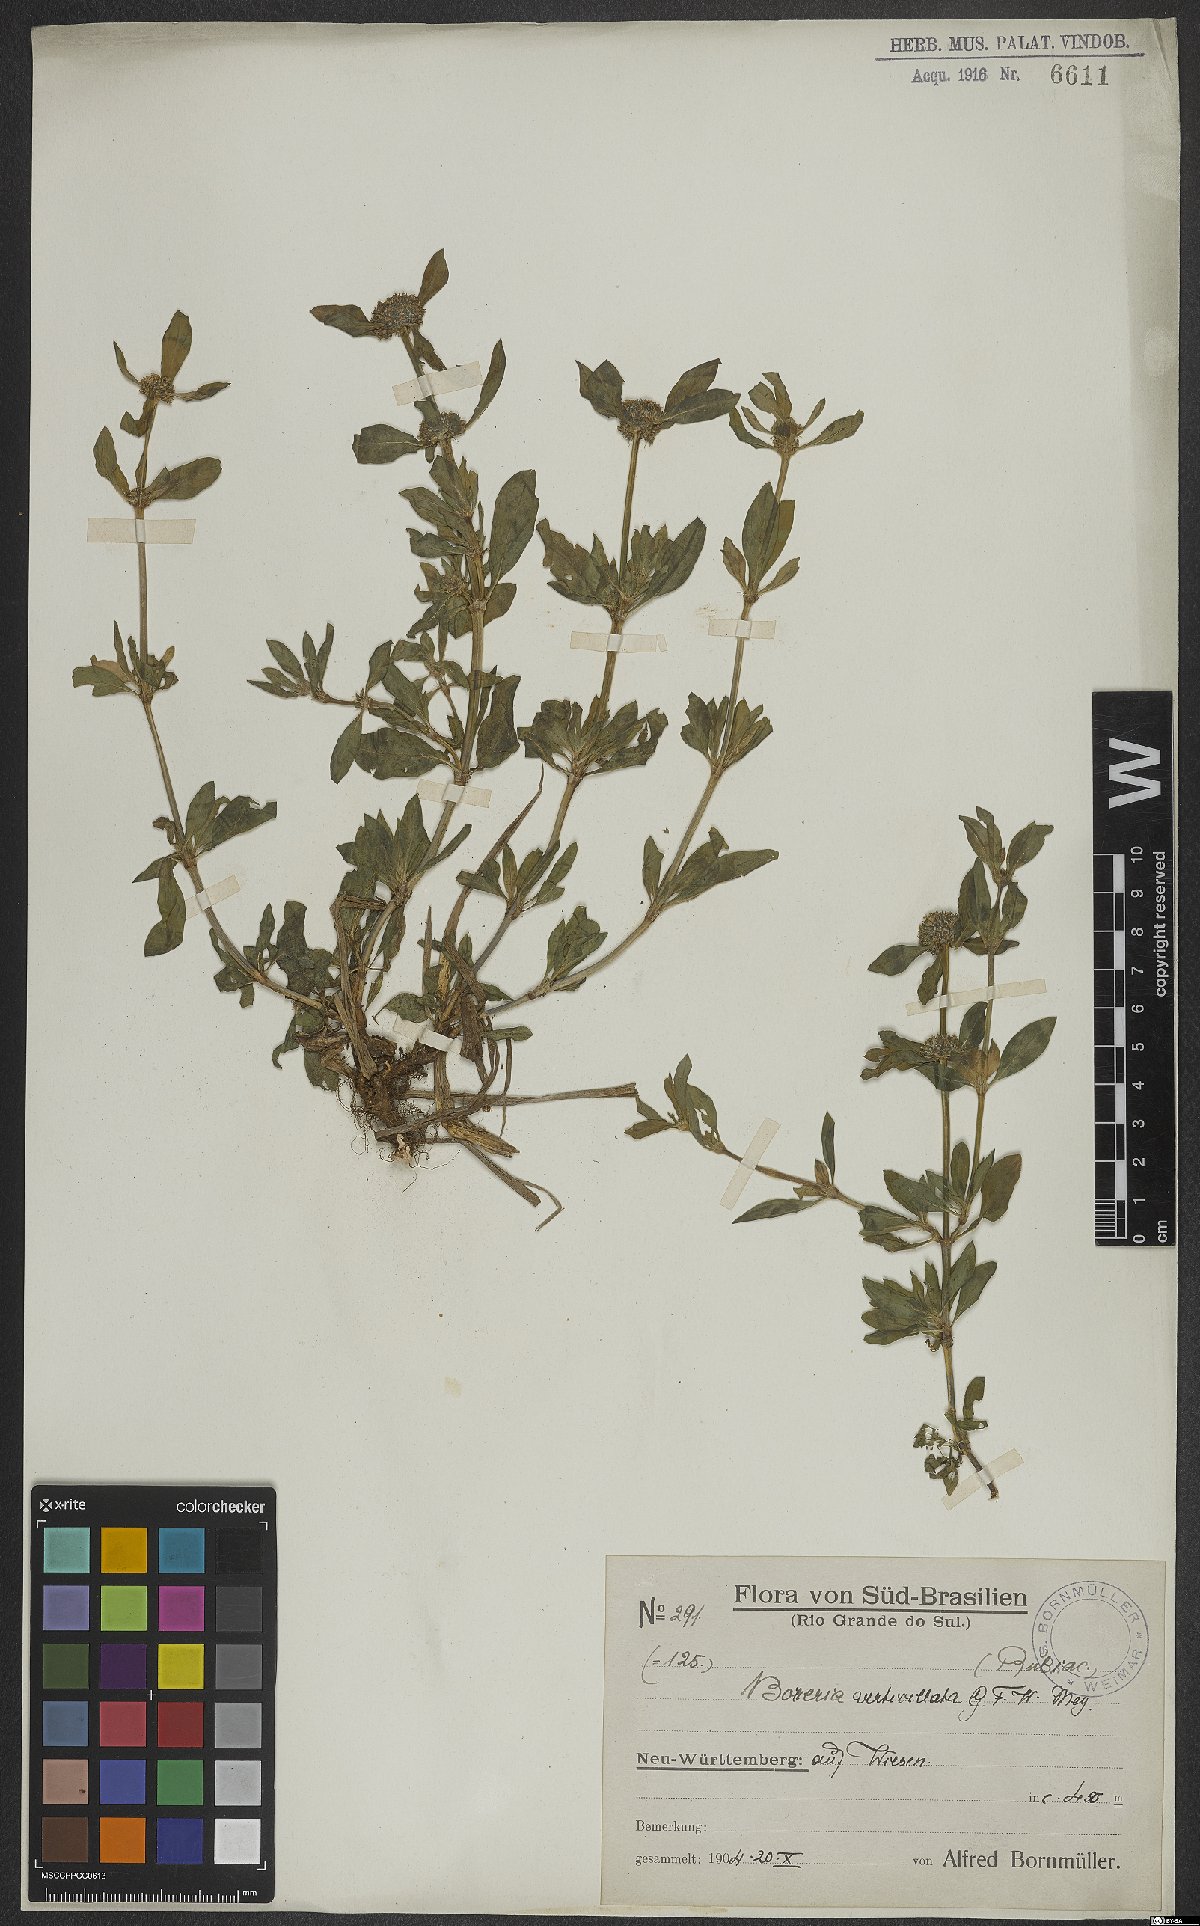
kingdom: Plantae
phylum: Tracheophyta
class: Magnoliopsida
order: Gentianales
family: Rubiaceae
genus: Spermacoce
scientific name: Spermacoce verticillata
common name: Shrubby false buttonweed
